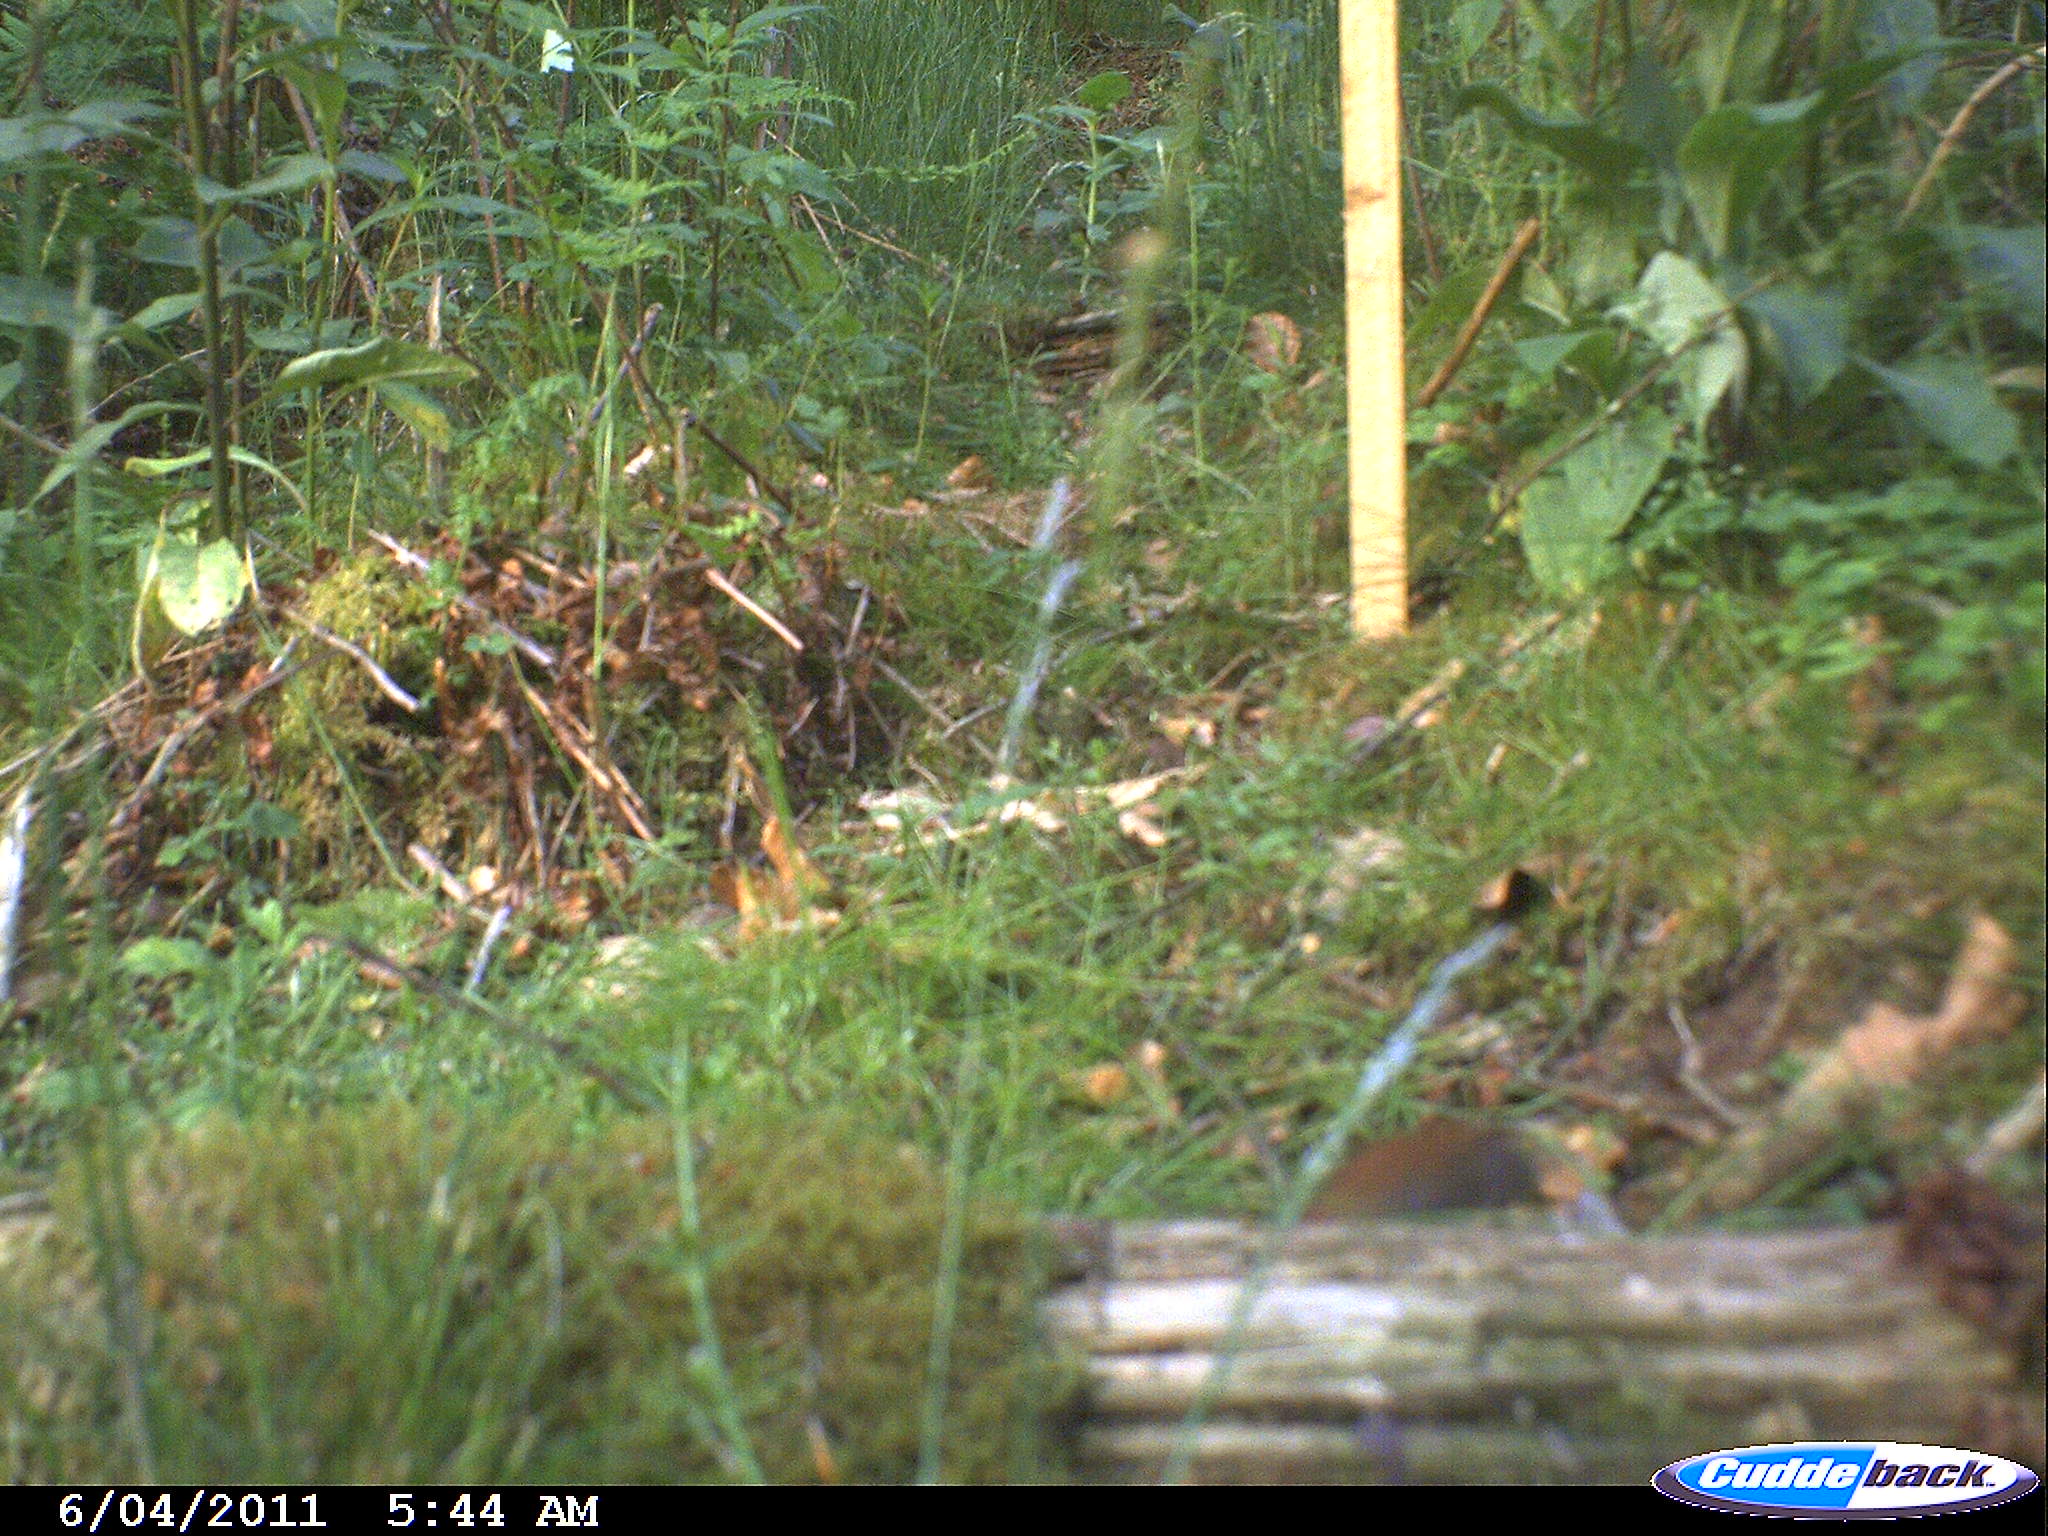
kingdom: Animalia
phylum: Chordata
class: Mammalia
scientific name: Mammalia
